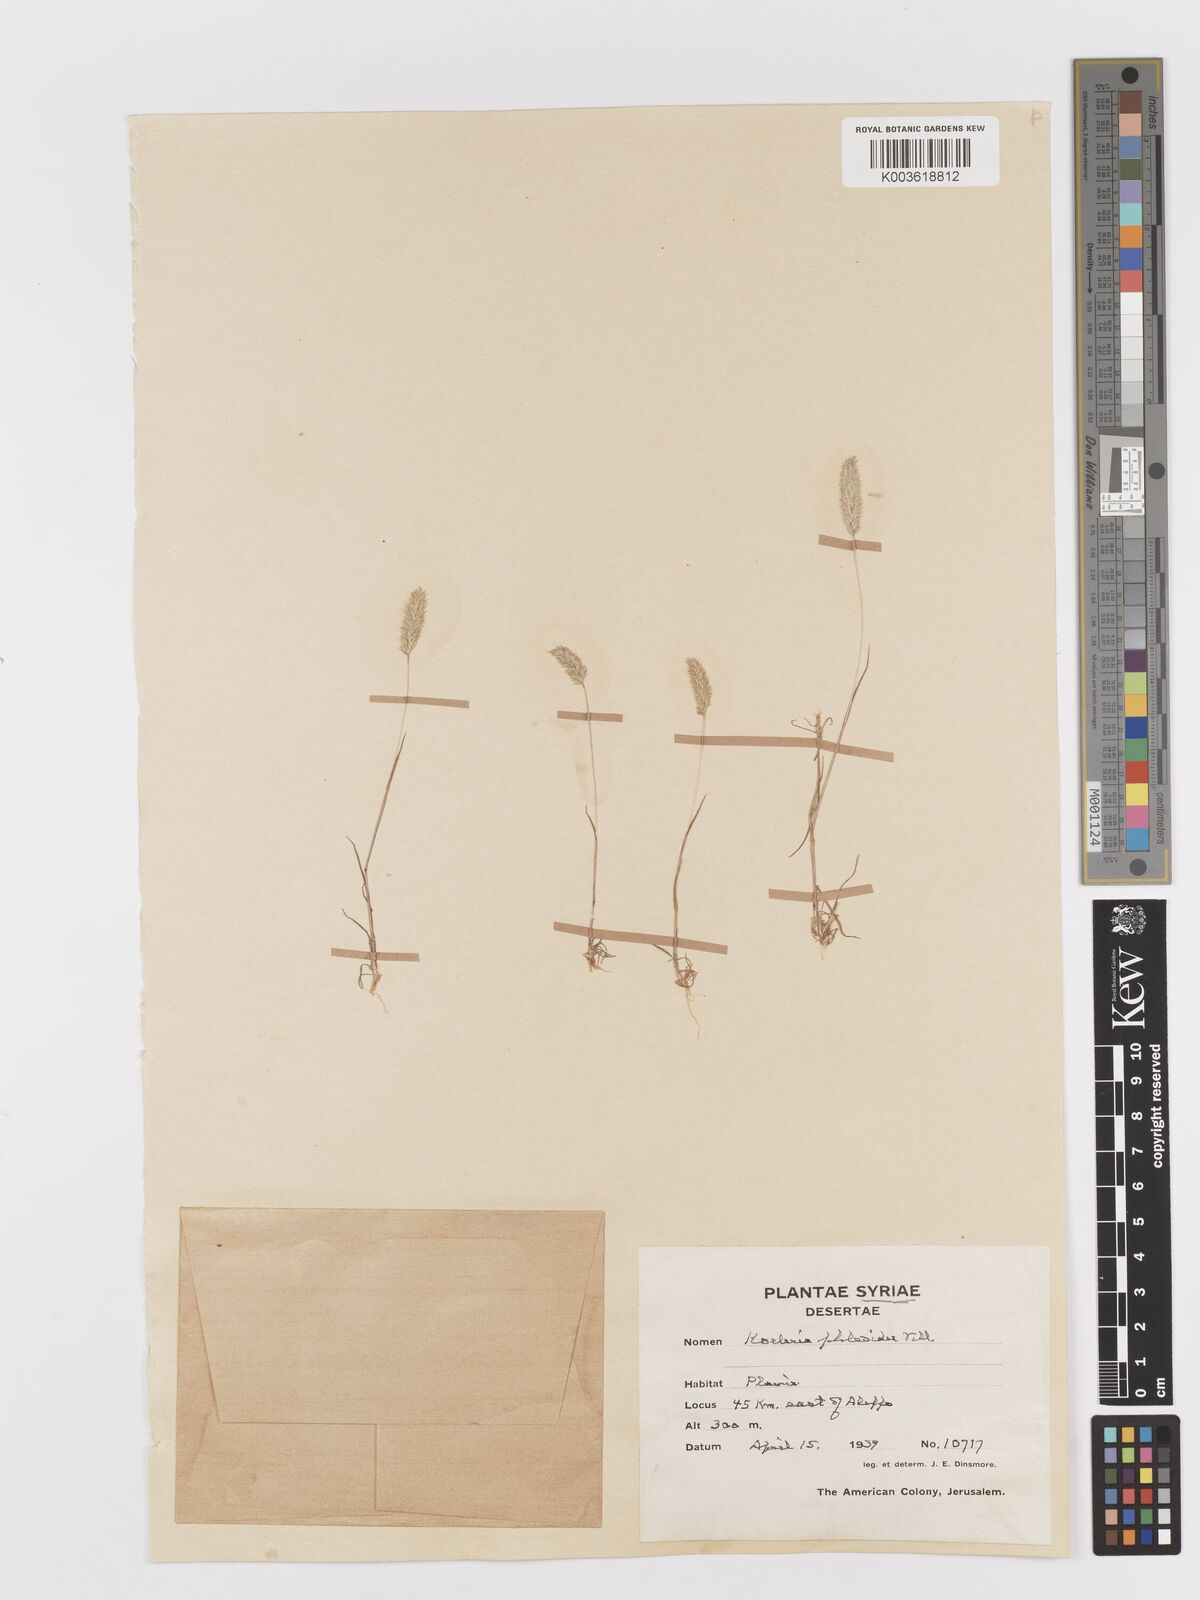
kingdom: Plantae
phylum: Tracheophyta
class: Liliopsida
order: Poales
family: Poaceae
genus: Rostraria
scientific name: Rostraria cristata
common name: Mediterranean hair-grass
